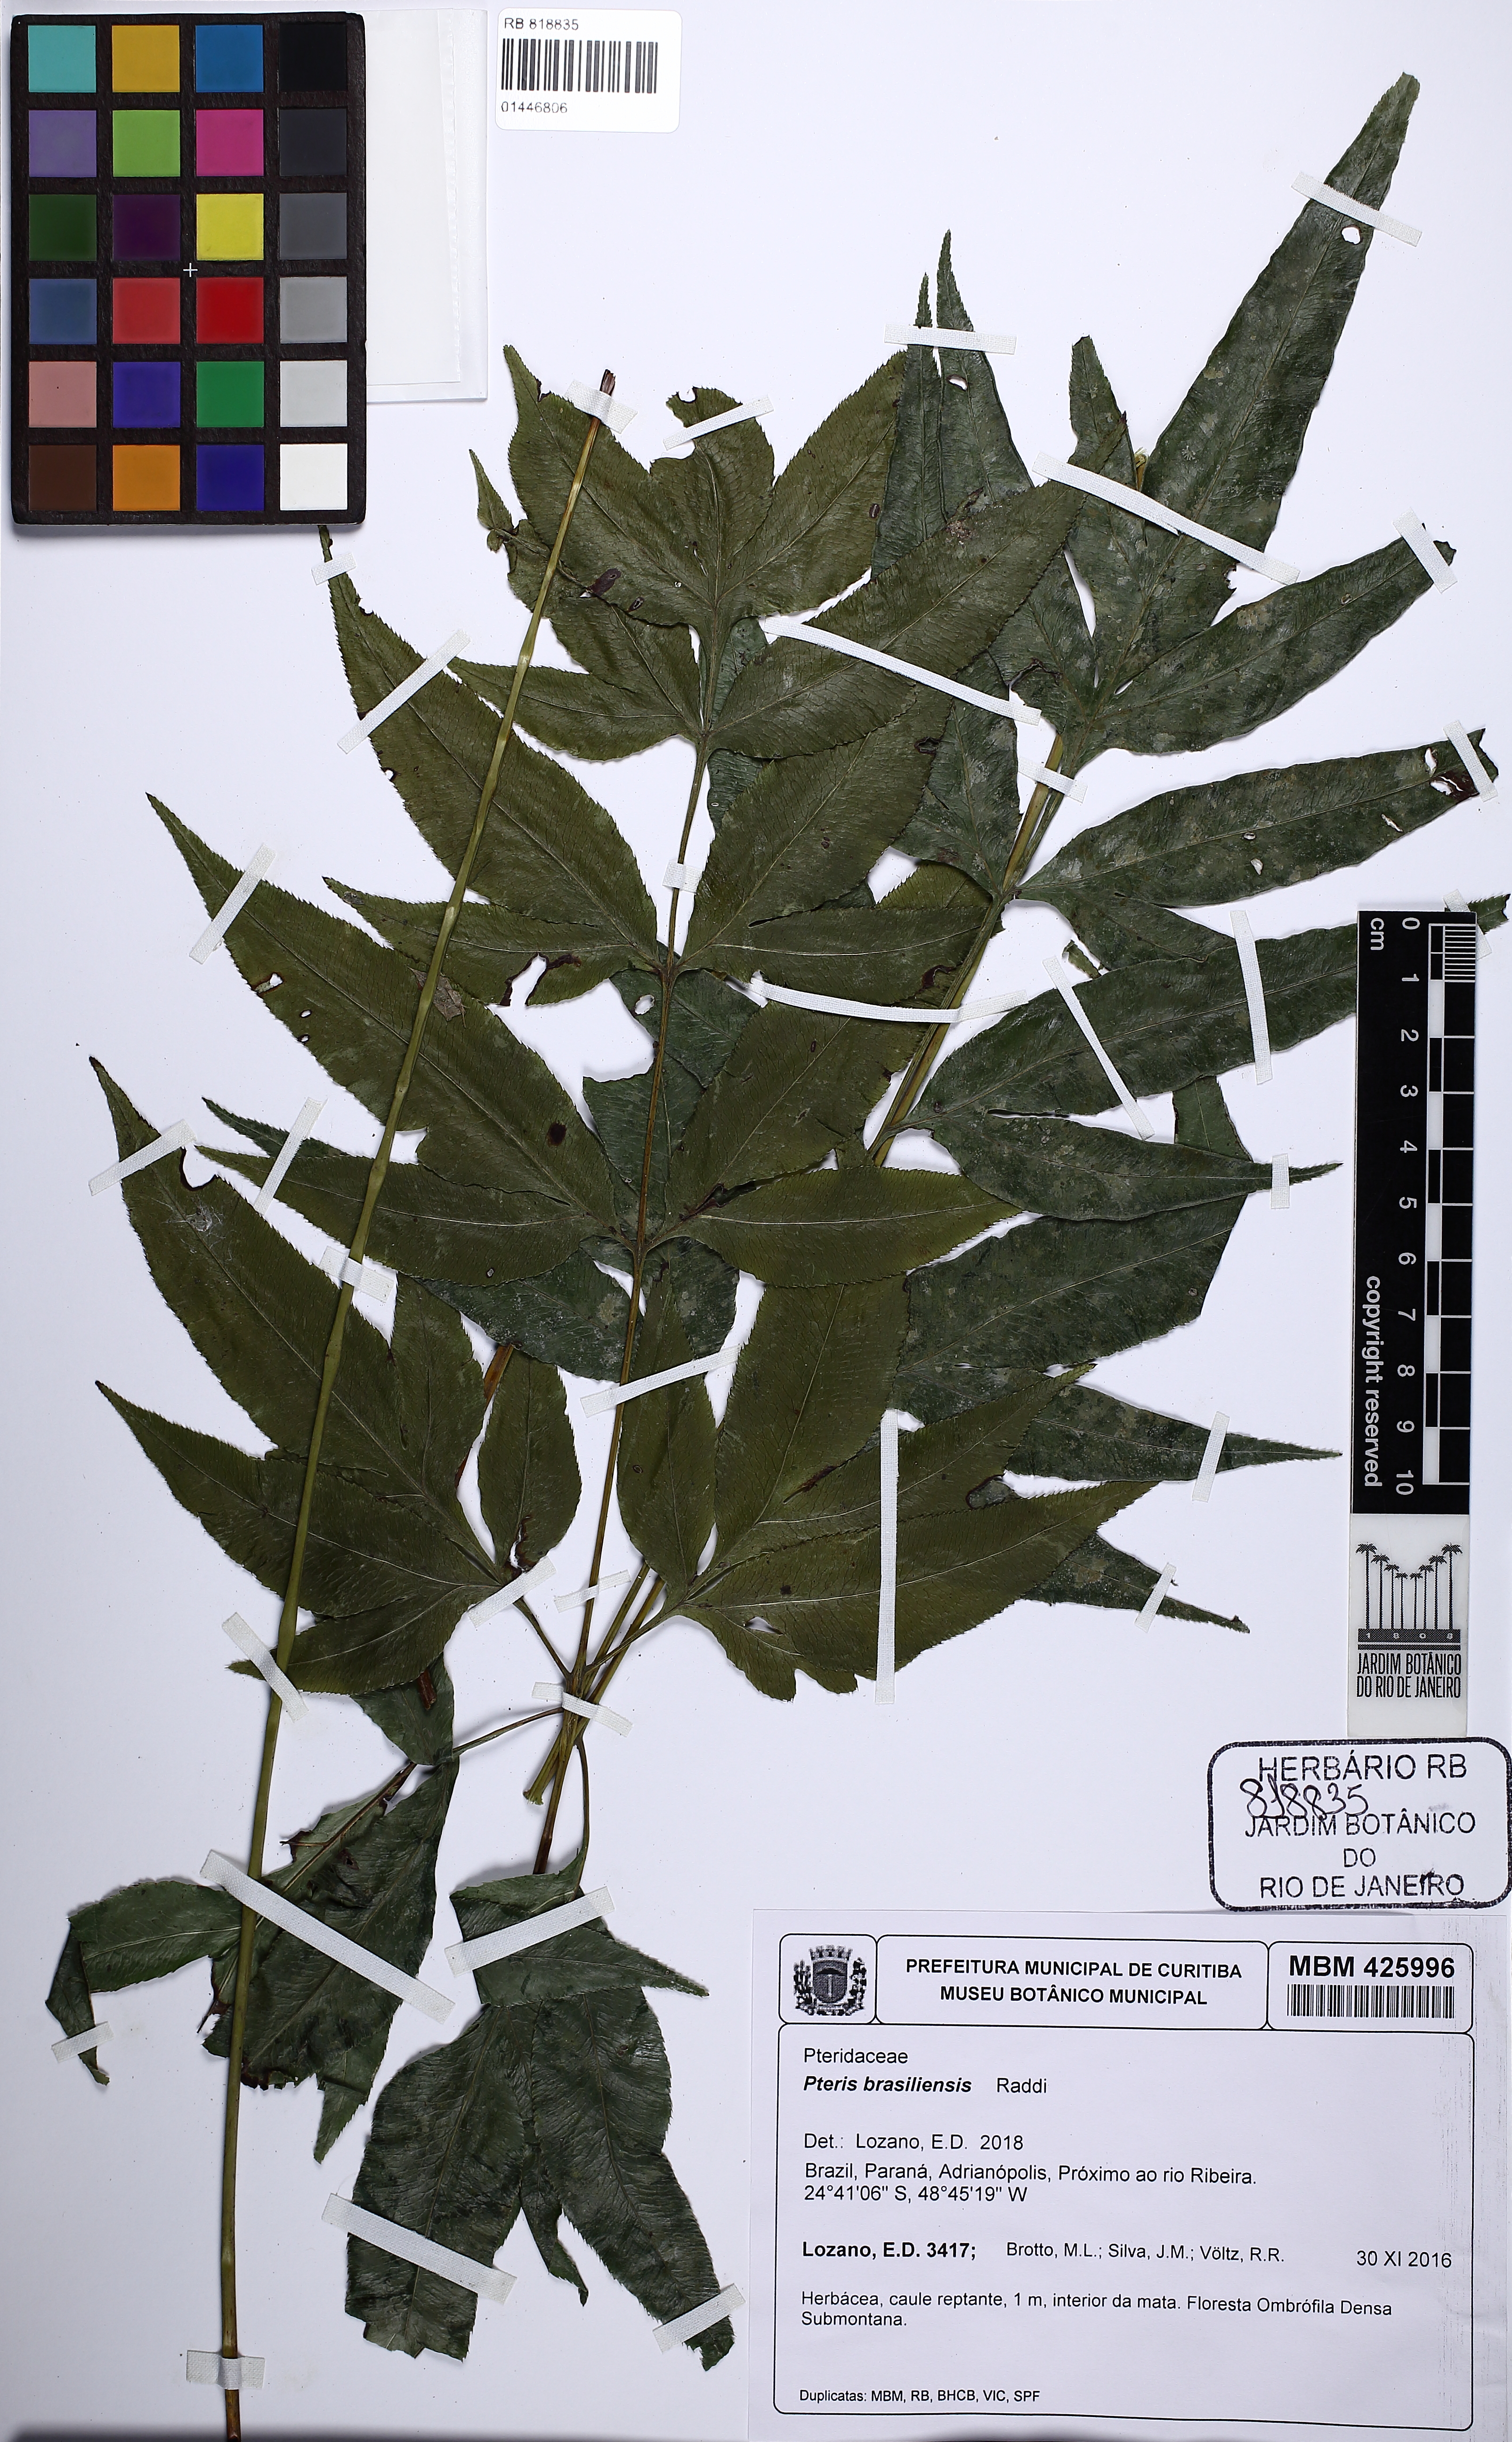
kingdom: Plantae
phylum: Tracheophyta
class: Polypodiopsida
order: Polypodiales
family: Pteridaceae
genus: Pteris
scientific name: Pteris brasiliensis
